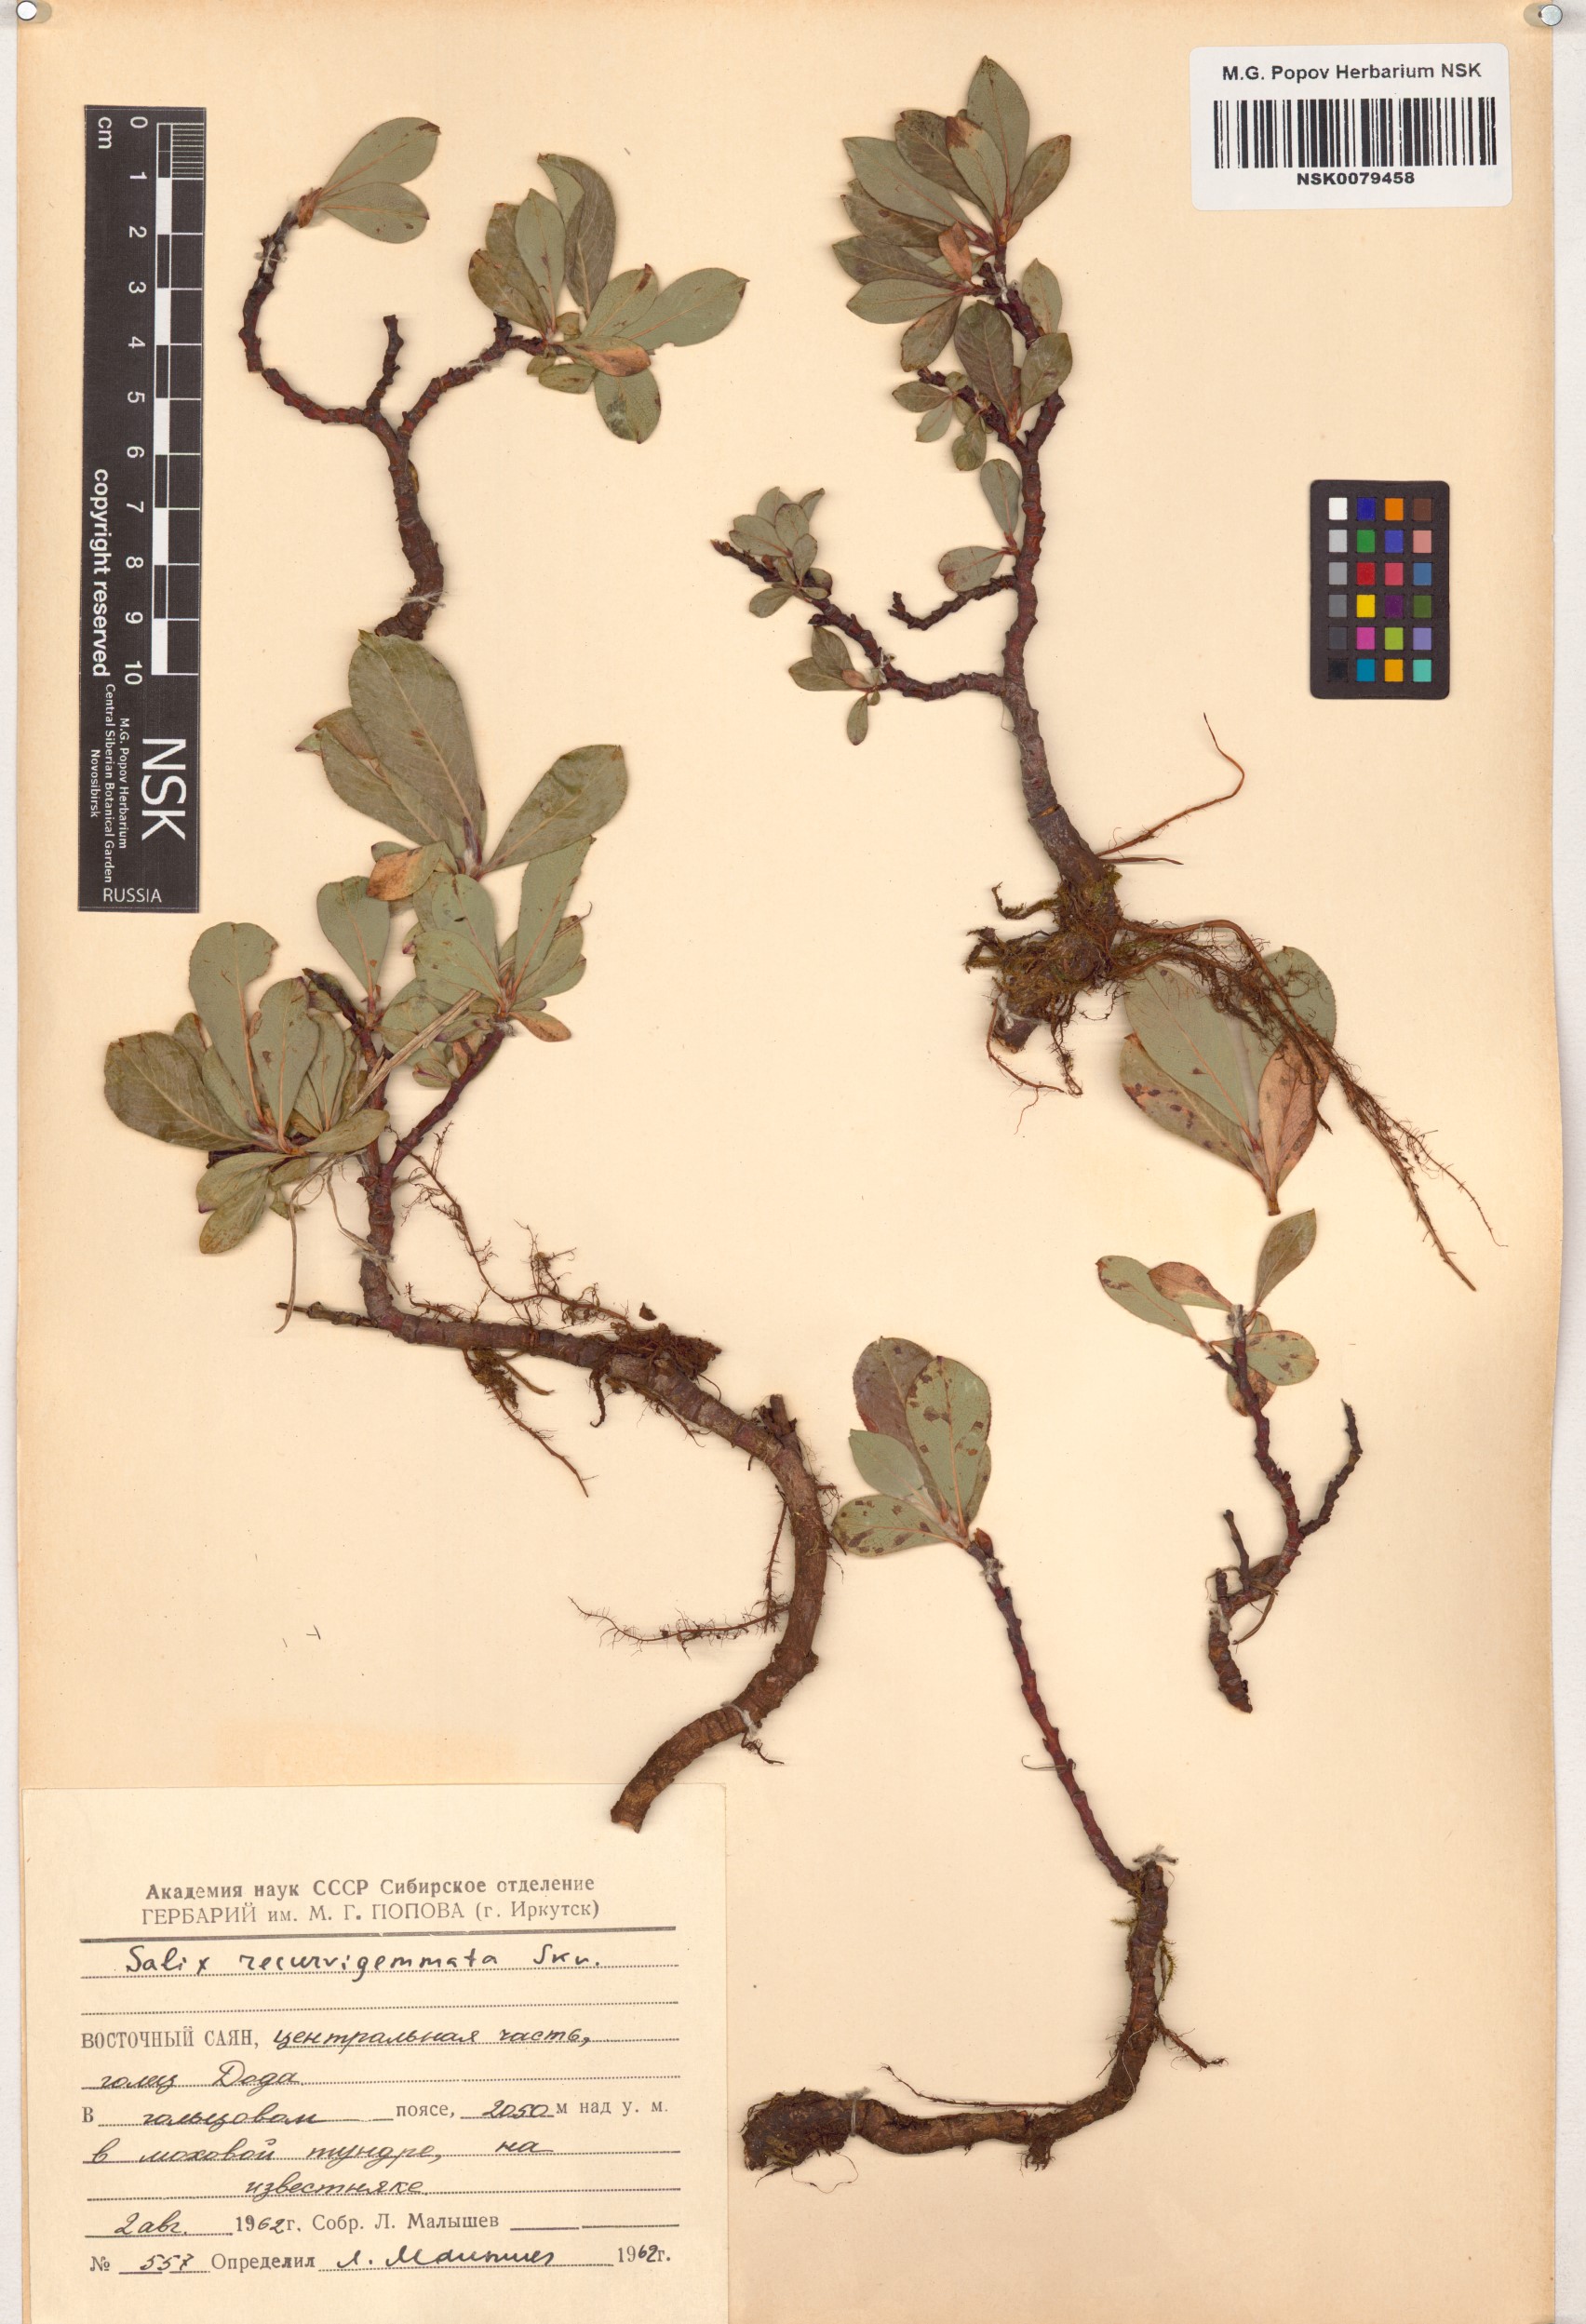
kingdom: Plantae
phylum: Tracheophyta
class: Magnoliopsida
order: Malpighiales
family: Salicaceae
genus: Salix
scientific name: Salix recurvigemmata
